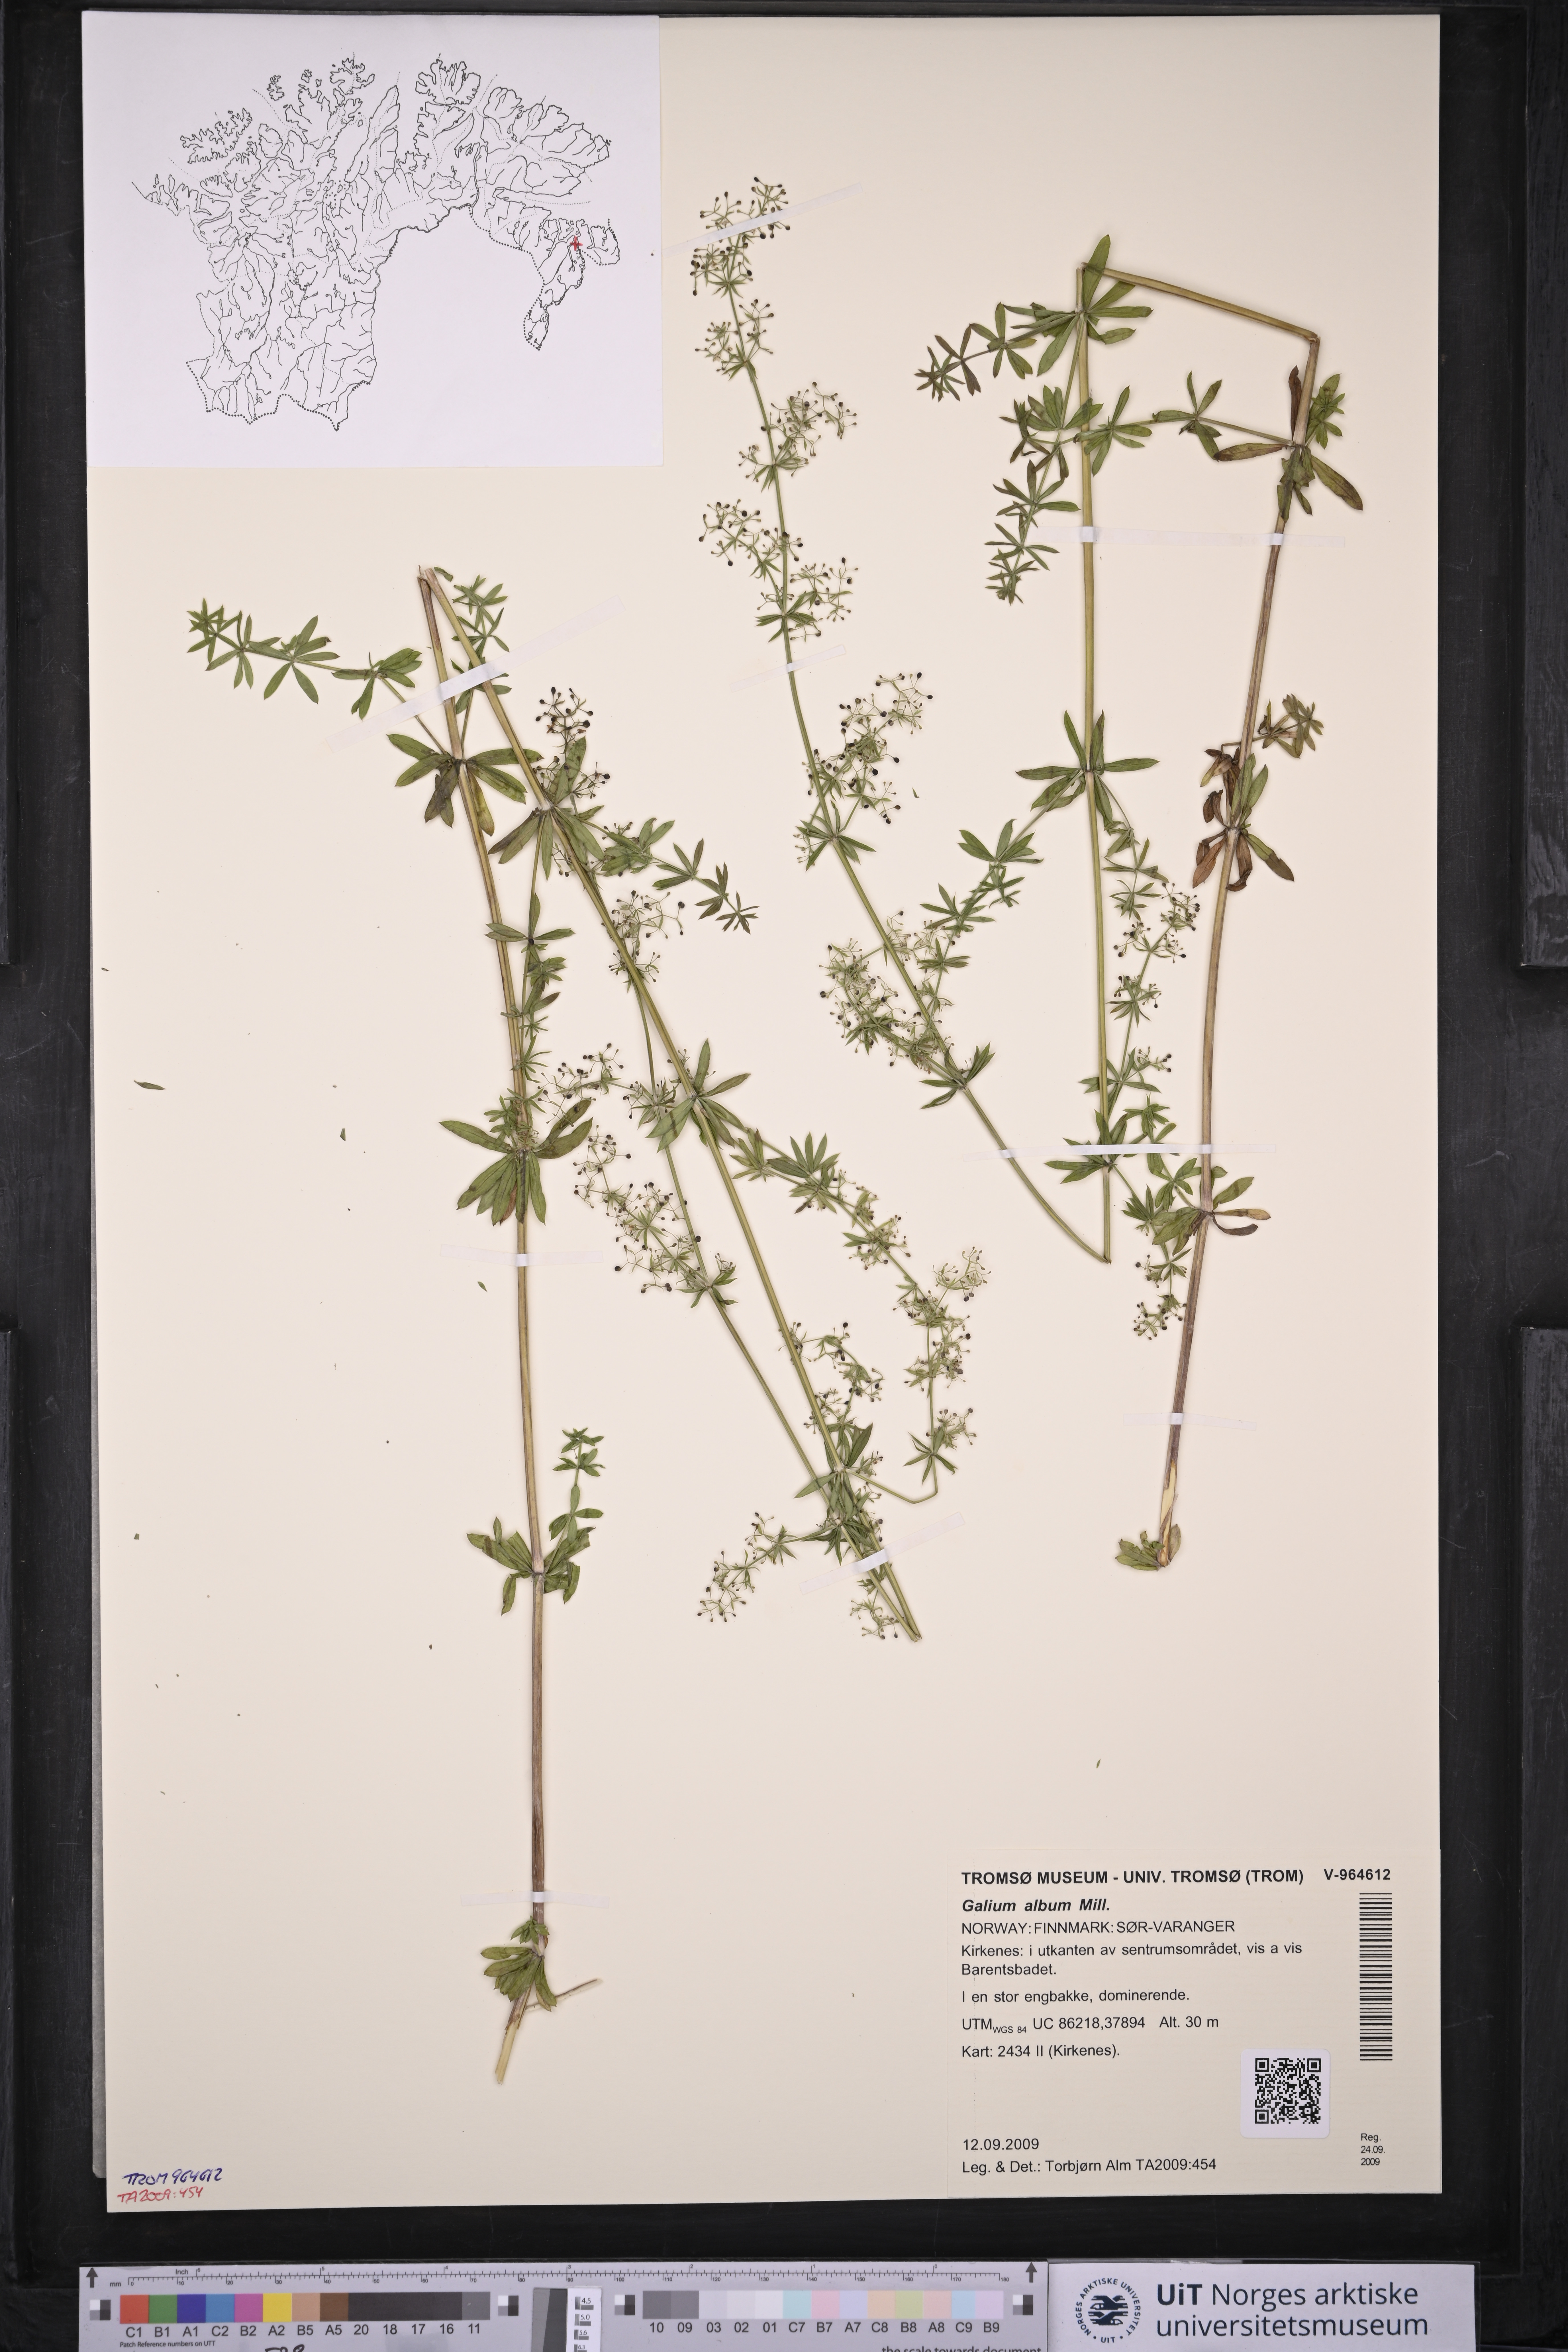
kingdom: Plantae
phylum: Tracheophyta
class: Magnoliopsida
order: Gentianales
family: Rubiaceae
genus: Galium
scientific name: Galium album
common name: White bedstraw
